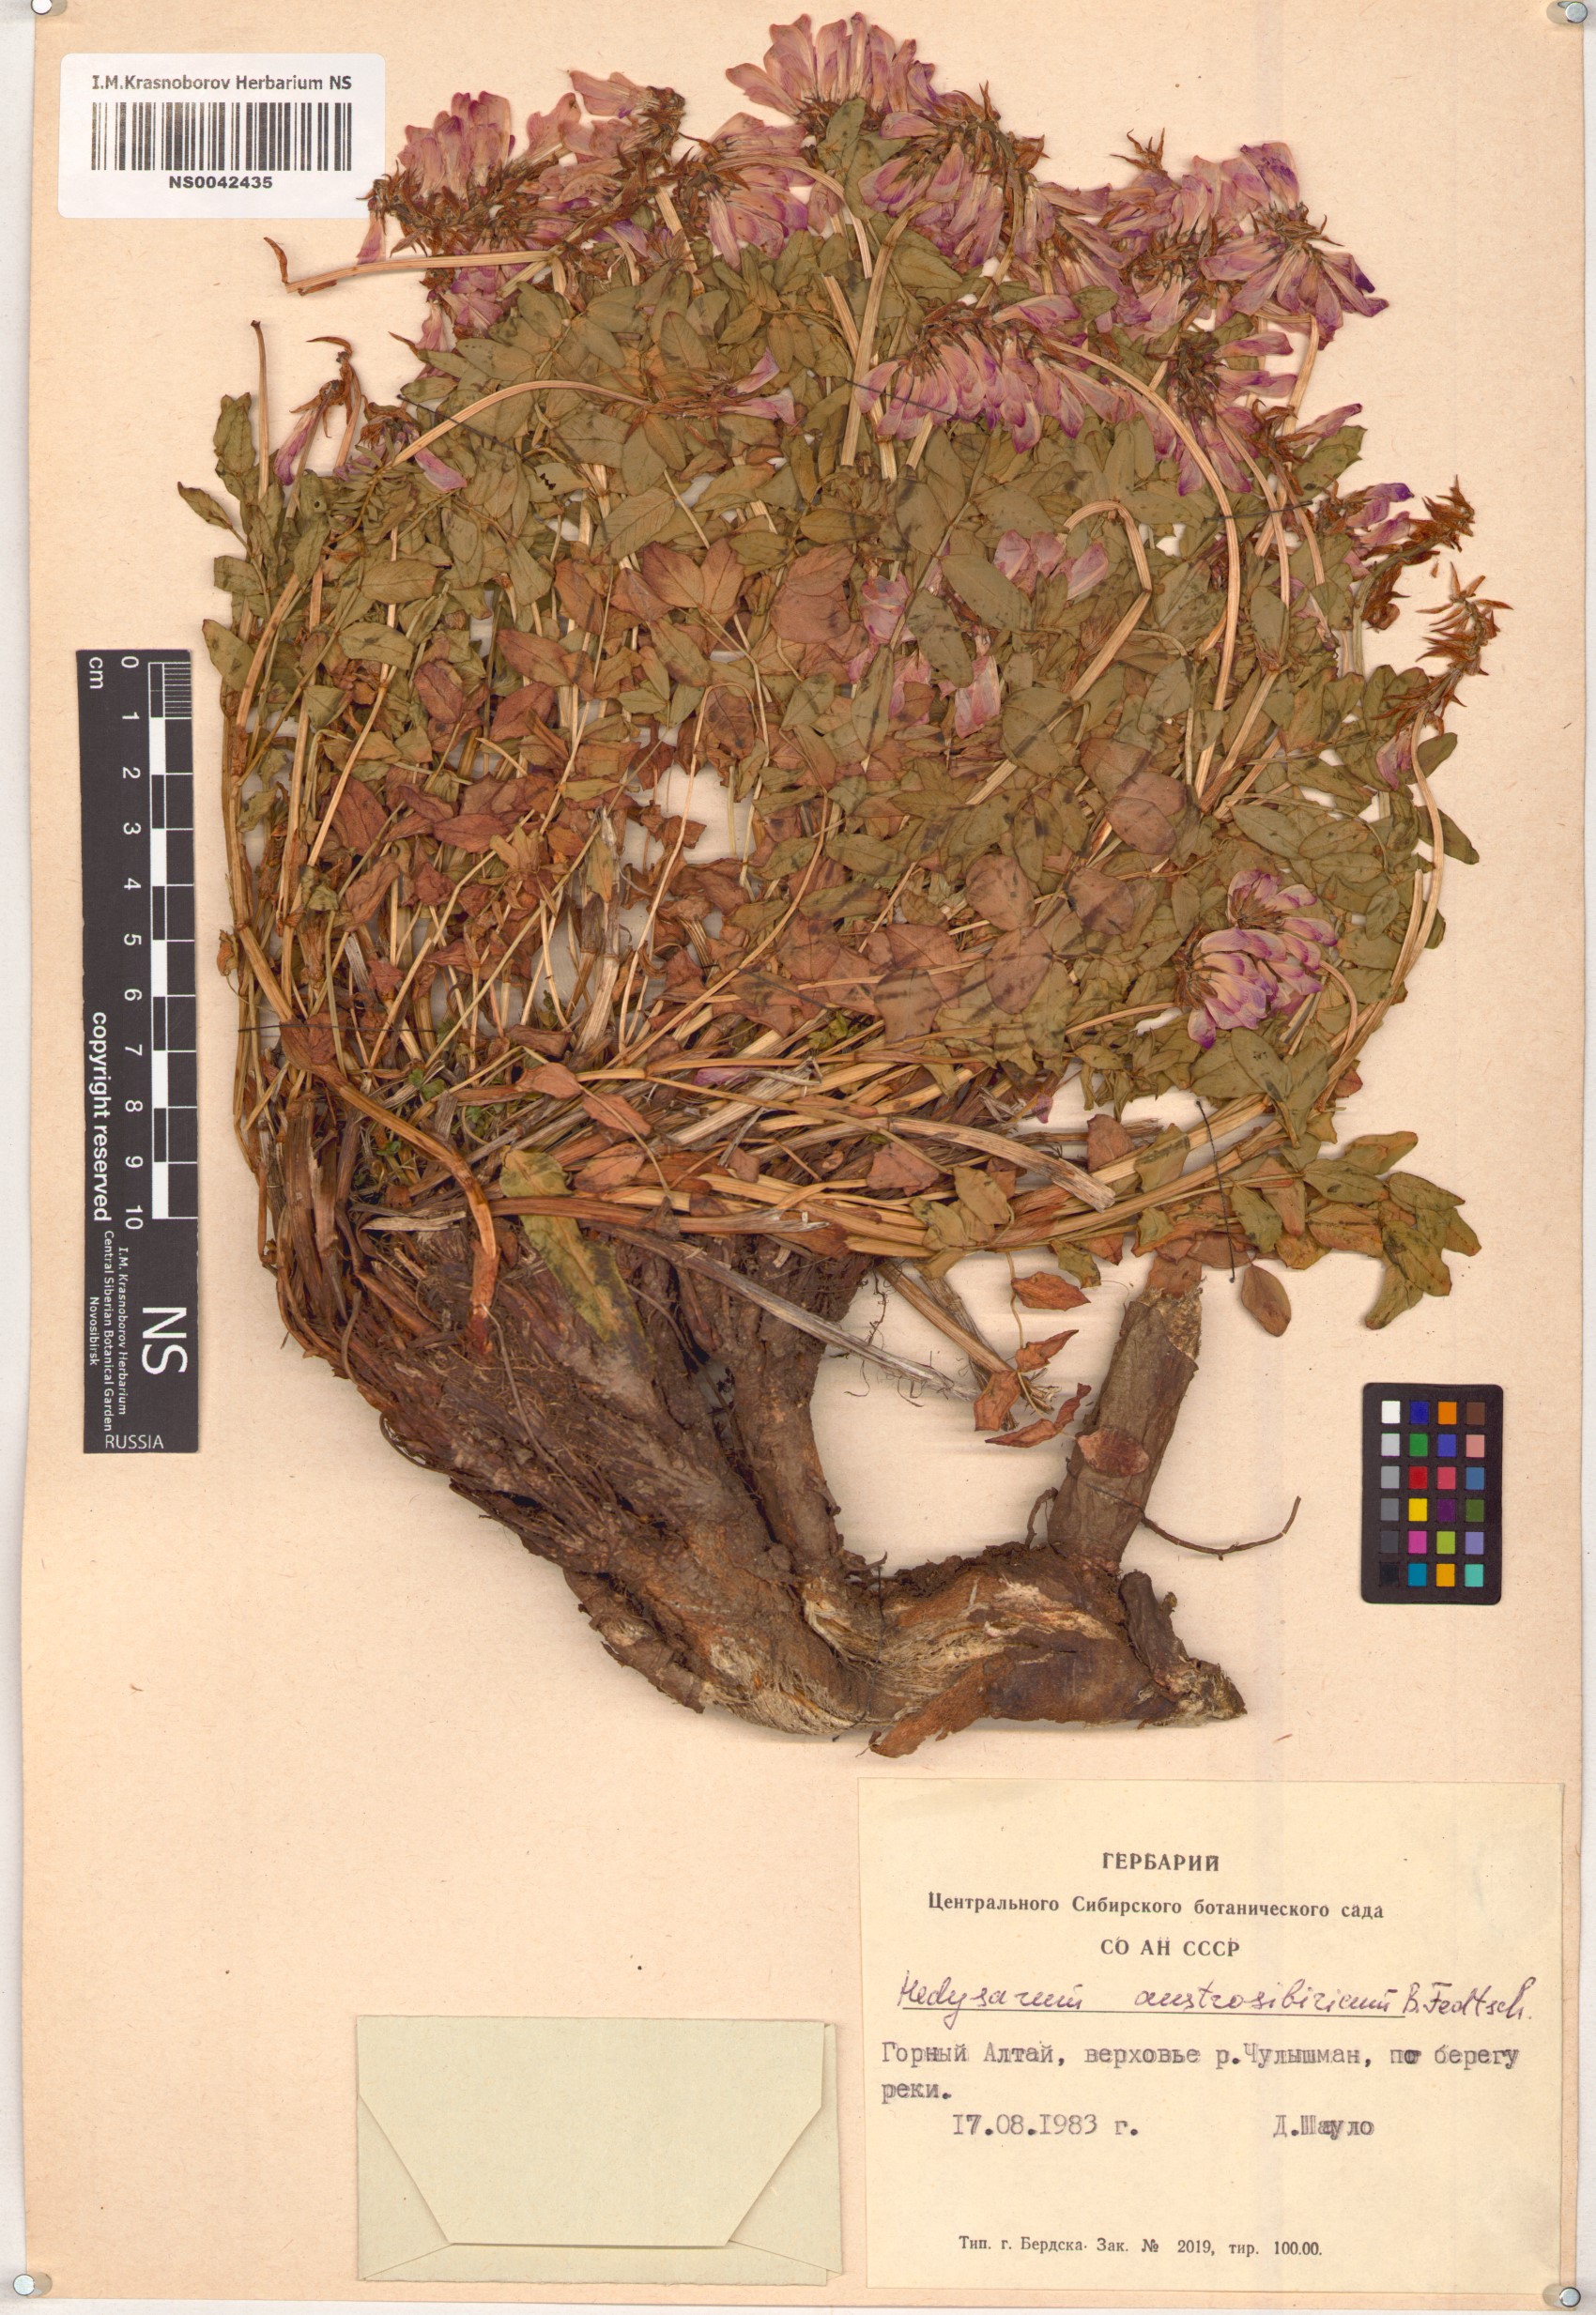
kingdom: Plantae
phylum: Tracheophyta
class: Magnoliopsida
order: Fabales
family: Fabaceae
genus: Hedysarum
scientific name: Hedysarum neglectum
